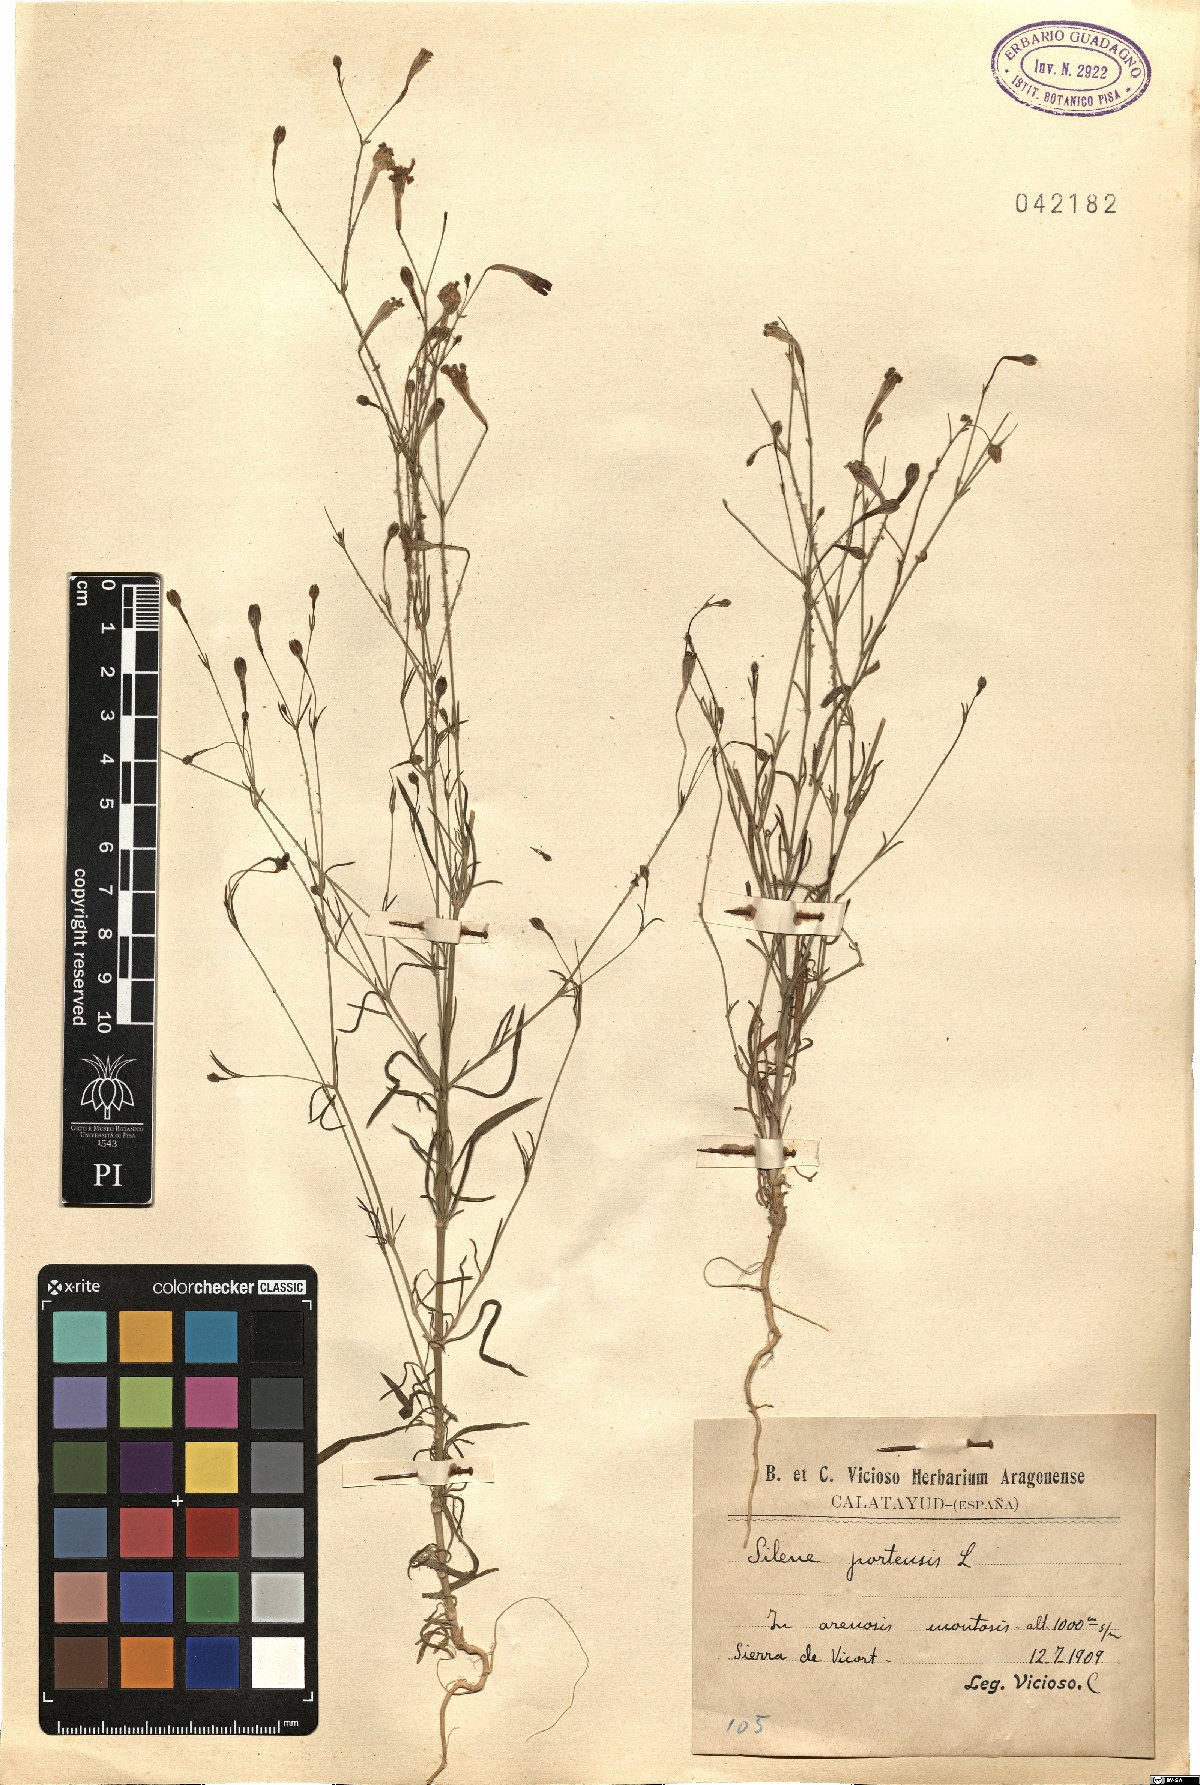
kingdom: Plantae
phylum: Tracheophyta
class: Magnoliopsida
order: Caryophyllales
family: Caryophyllaceae
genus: Silene
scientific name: Silene portensis
